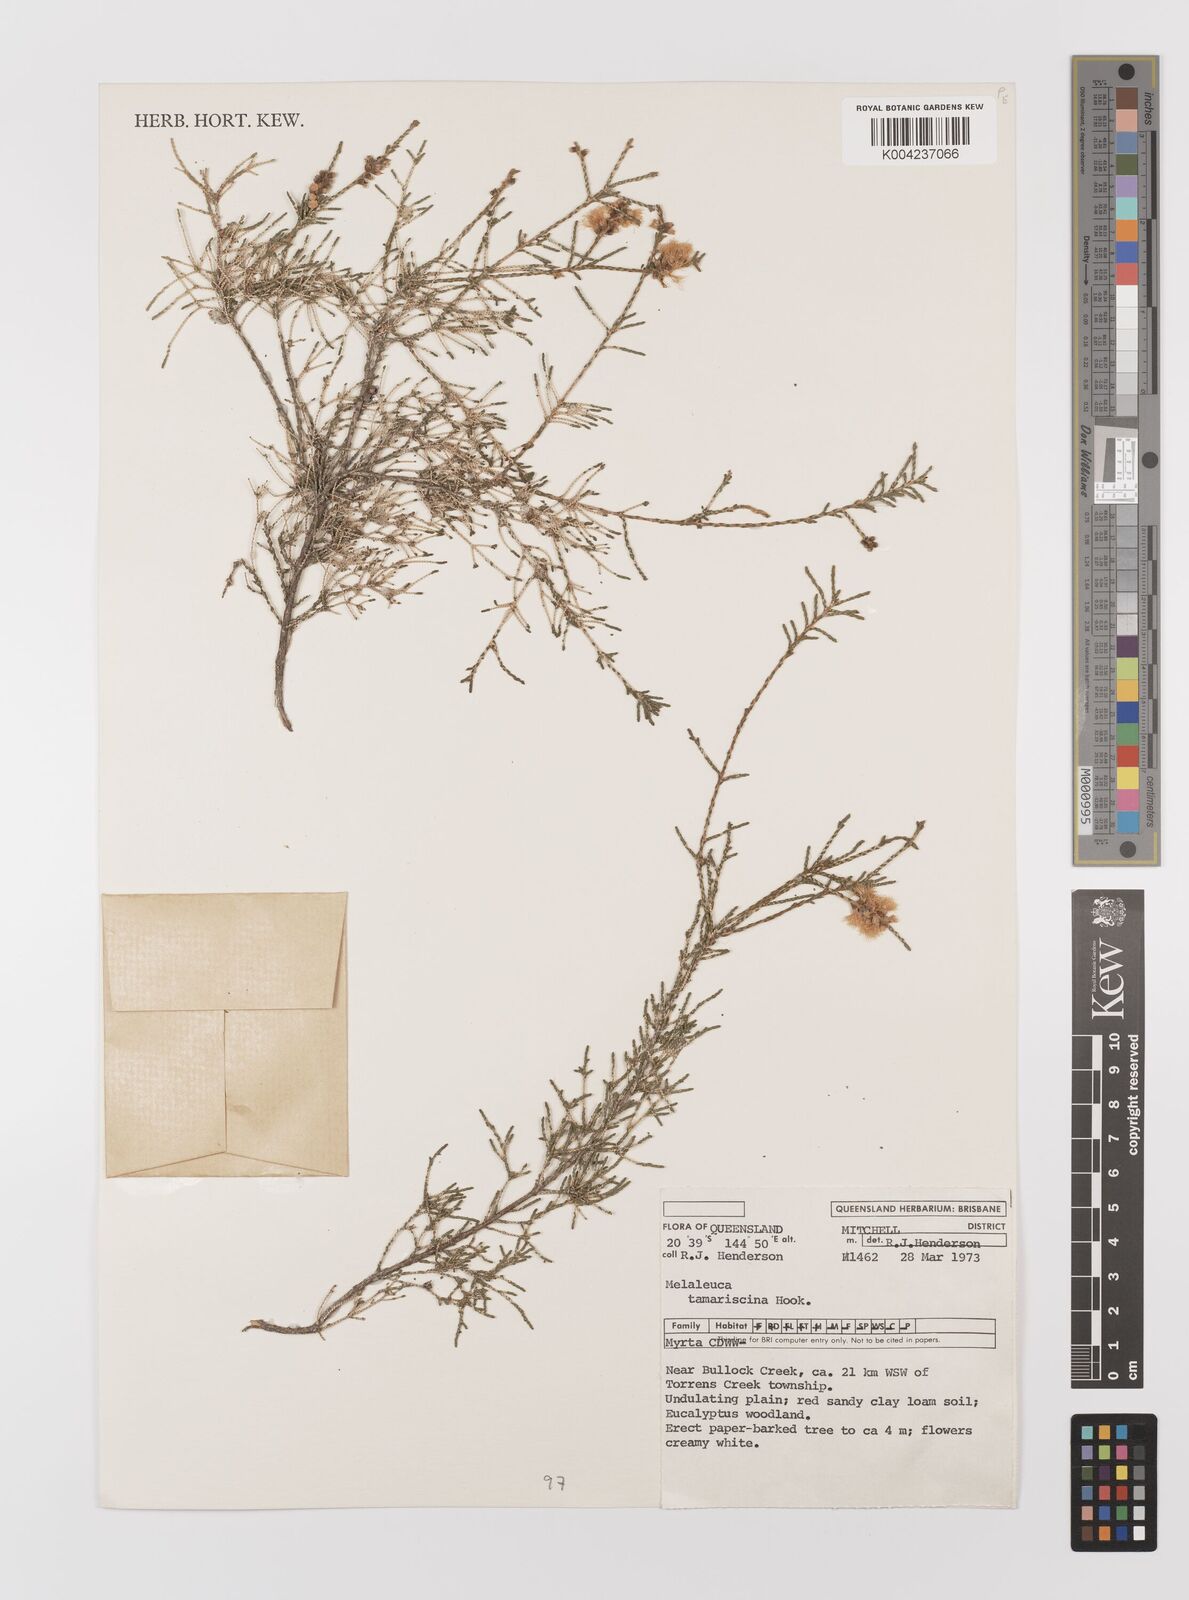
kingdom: Plantae
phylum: Tracheophyta
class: Magnoliopsida
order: Myrtales
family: Myrtaceae
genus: Melaleuca
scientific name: Melaleuca tamariscina
